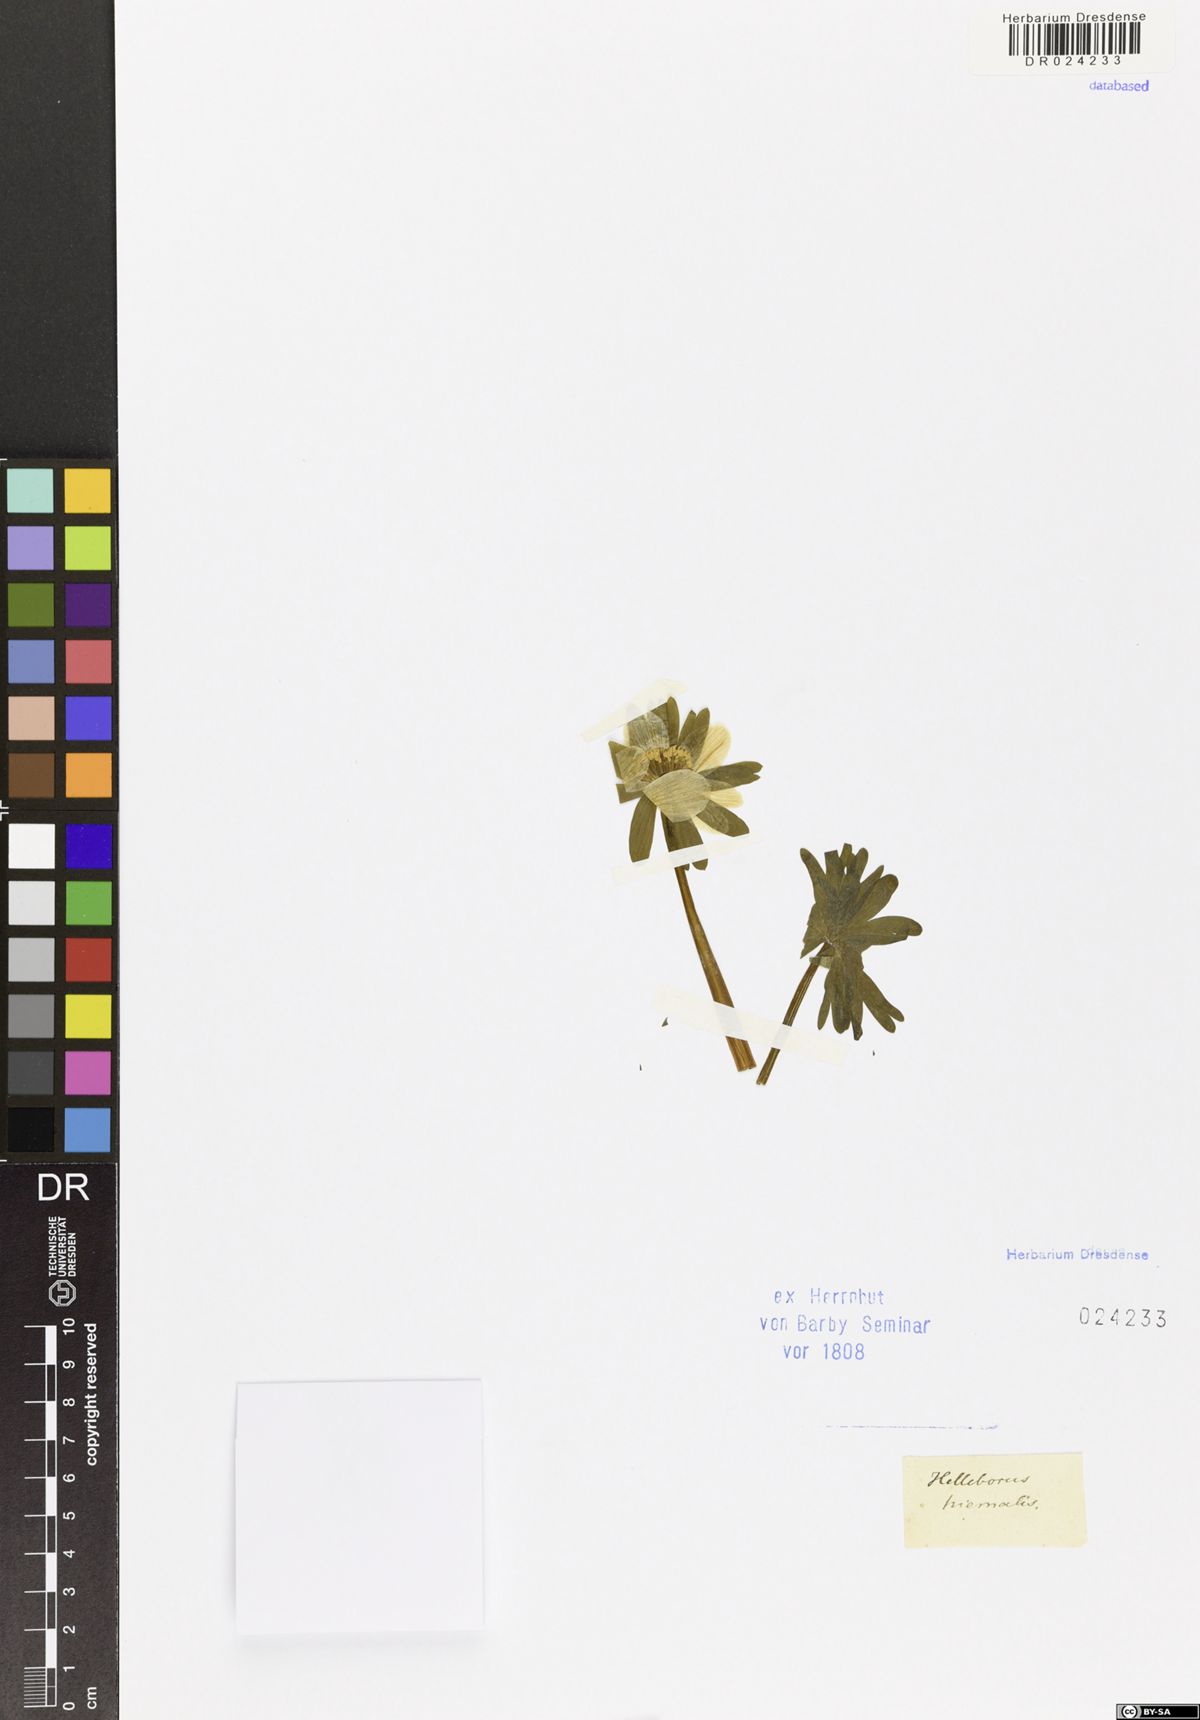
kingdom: Plantae
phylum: Tracheophyta
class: Magnoliopsida
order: Ranunculales
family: Ranunculaceae
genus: Eranthis
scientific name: Eranthis hyemalis
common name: Winter aconite
